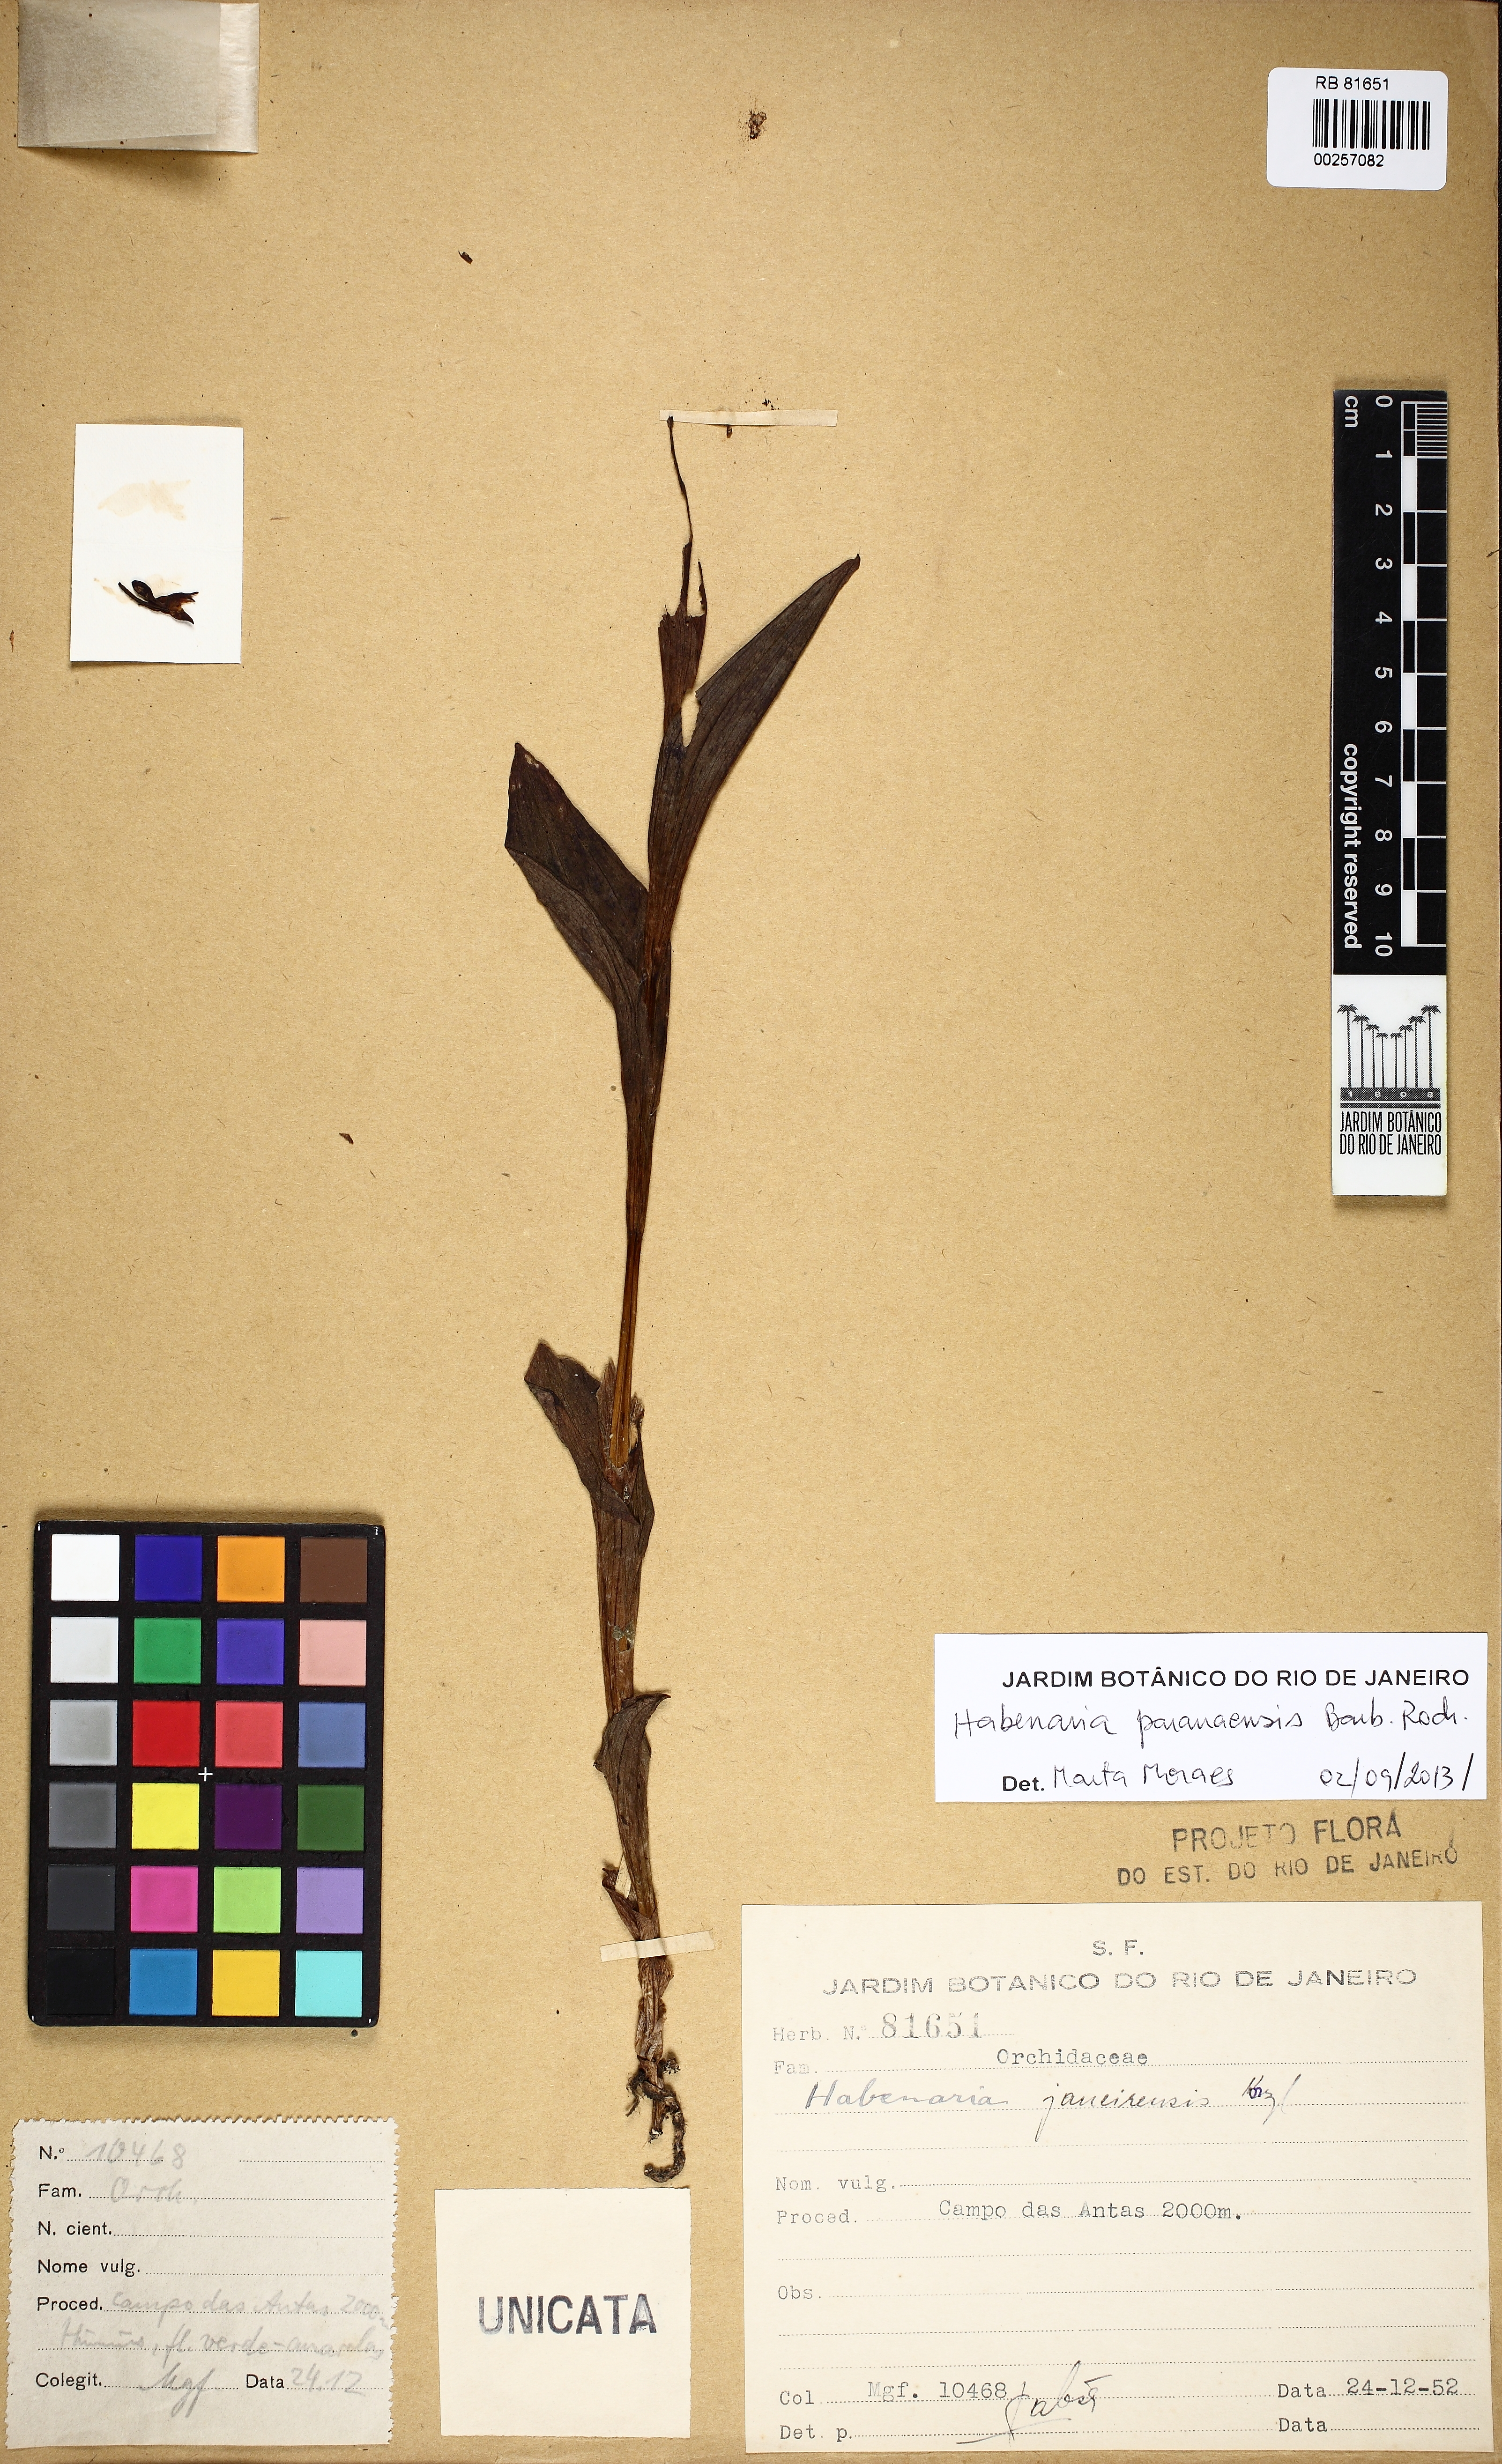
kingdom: Plantae
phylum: Tracheophyta
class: Liliopsida
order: Asparagales
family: Orchidaceae
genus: Habenaria
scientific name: Habenaria paranaensis
